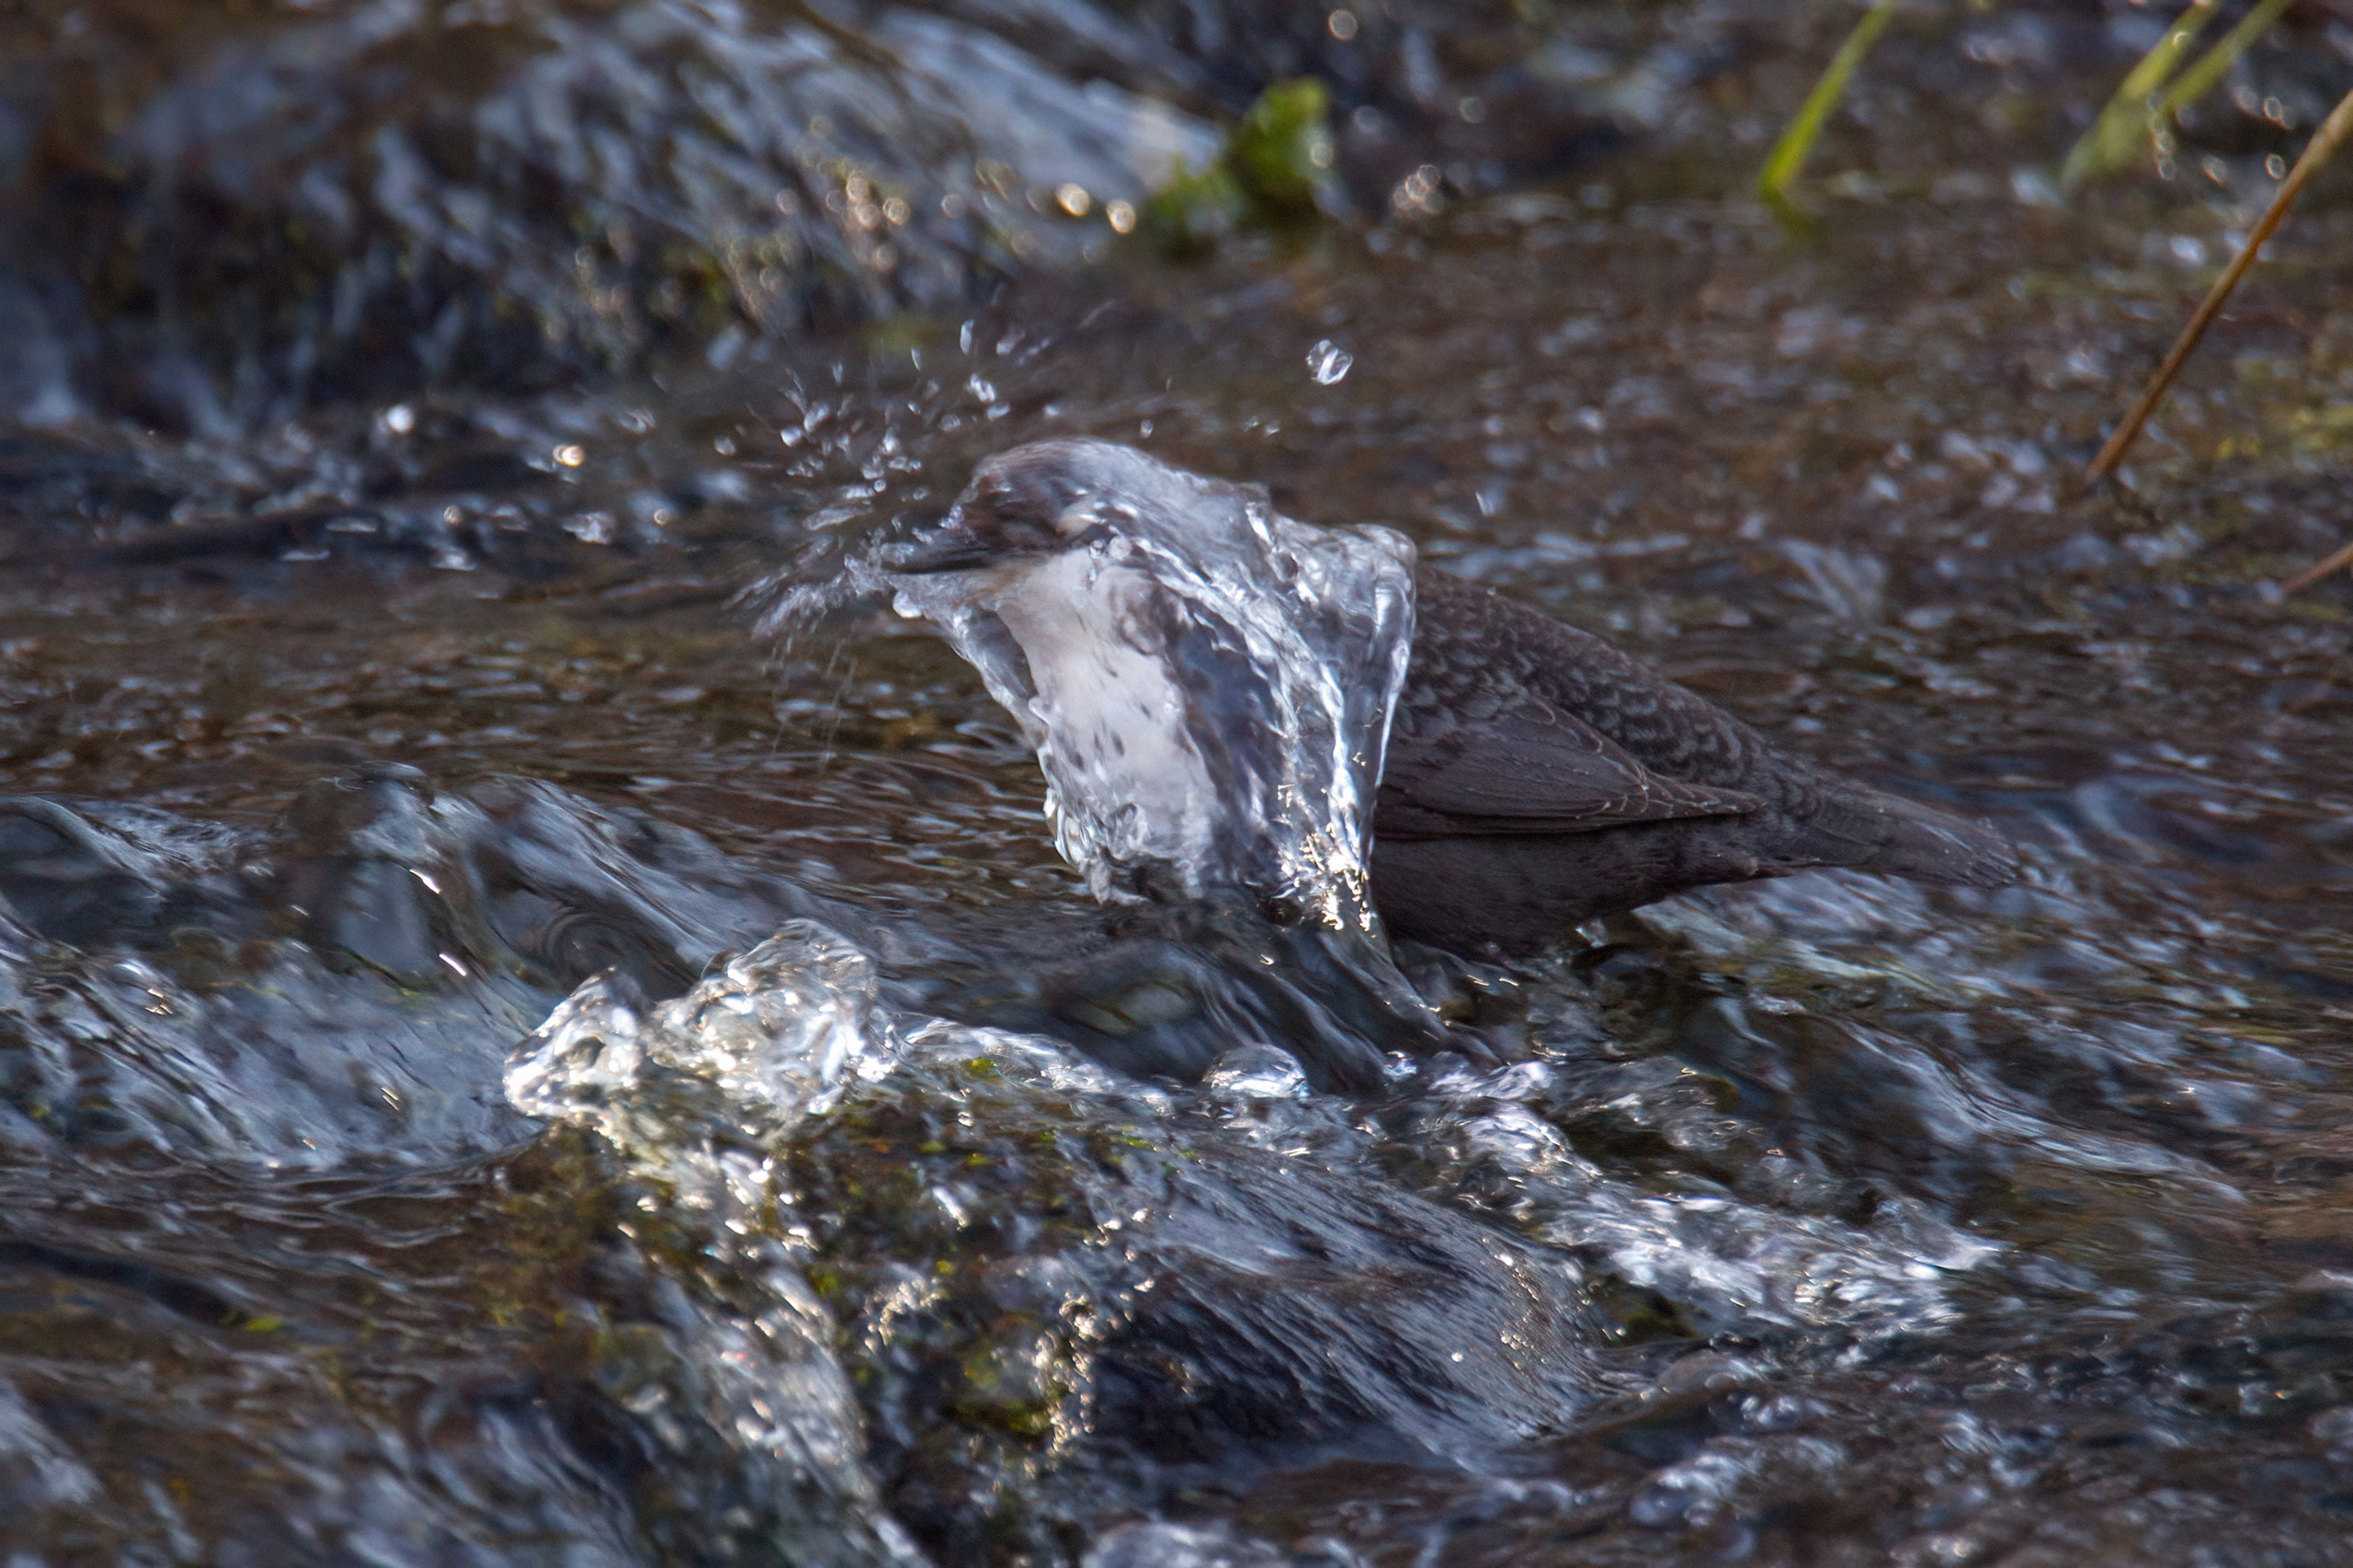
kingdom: Animalia
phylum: Chordata
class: Aves
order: Passeriformes
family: Cinclidae
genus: Cinclus
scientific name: Cinclus cinclus
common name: Vandstær
